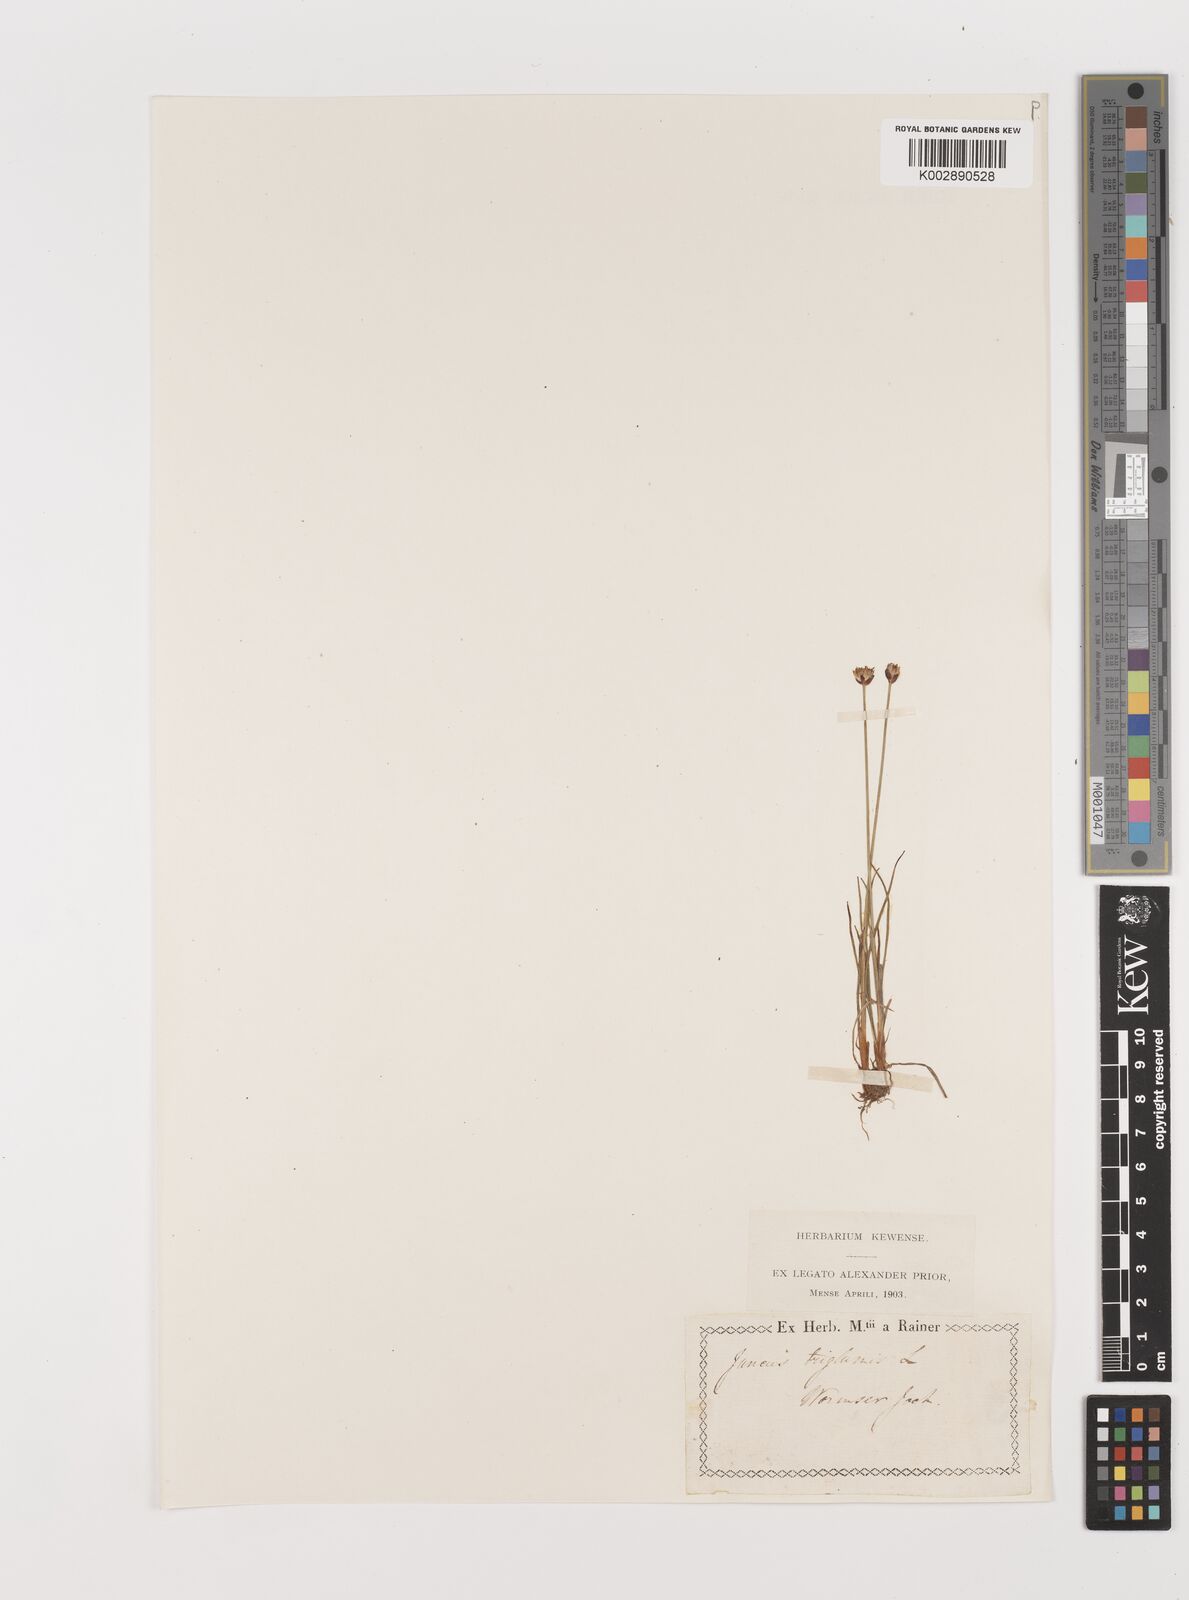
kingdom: Plantae
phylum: Tracheophyta
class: Liliopsida
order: Poales
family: Juncaceae
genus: Juncus
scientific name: Juncus triglumis
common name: Three-flowered rush
